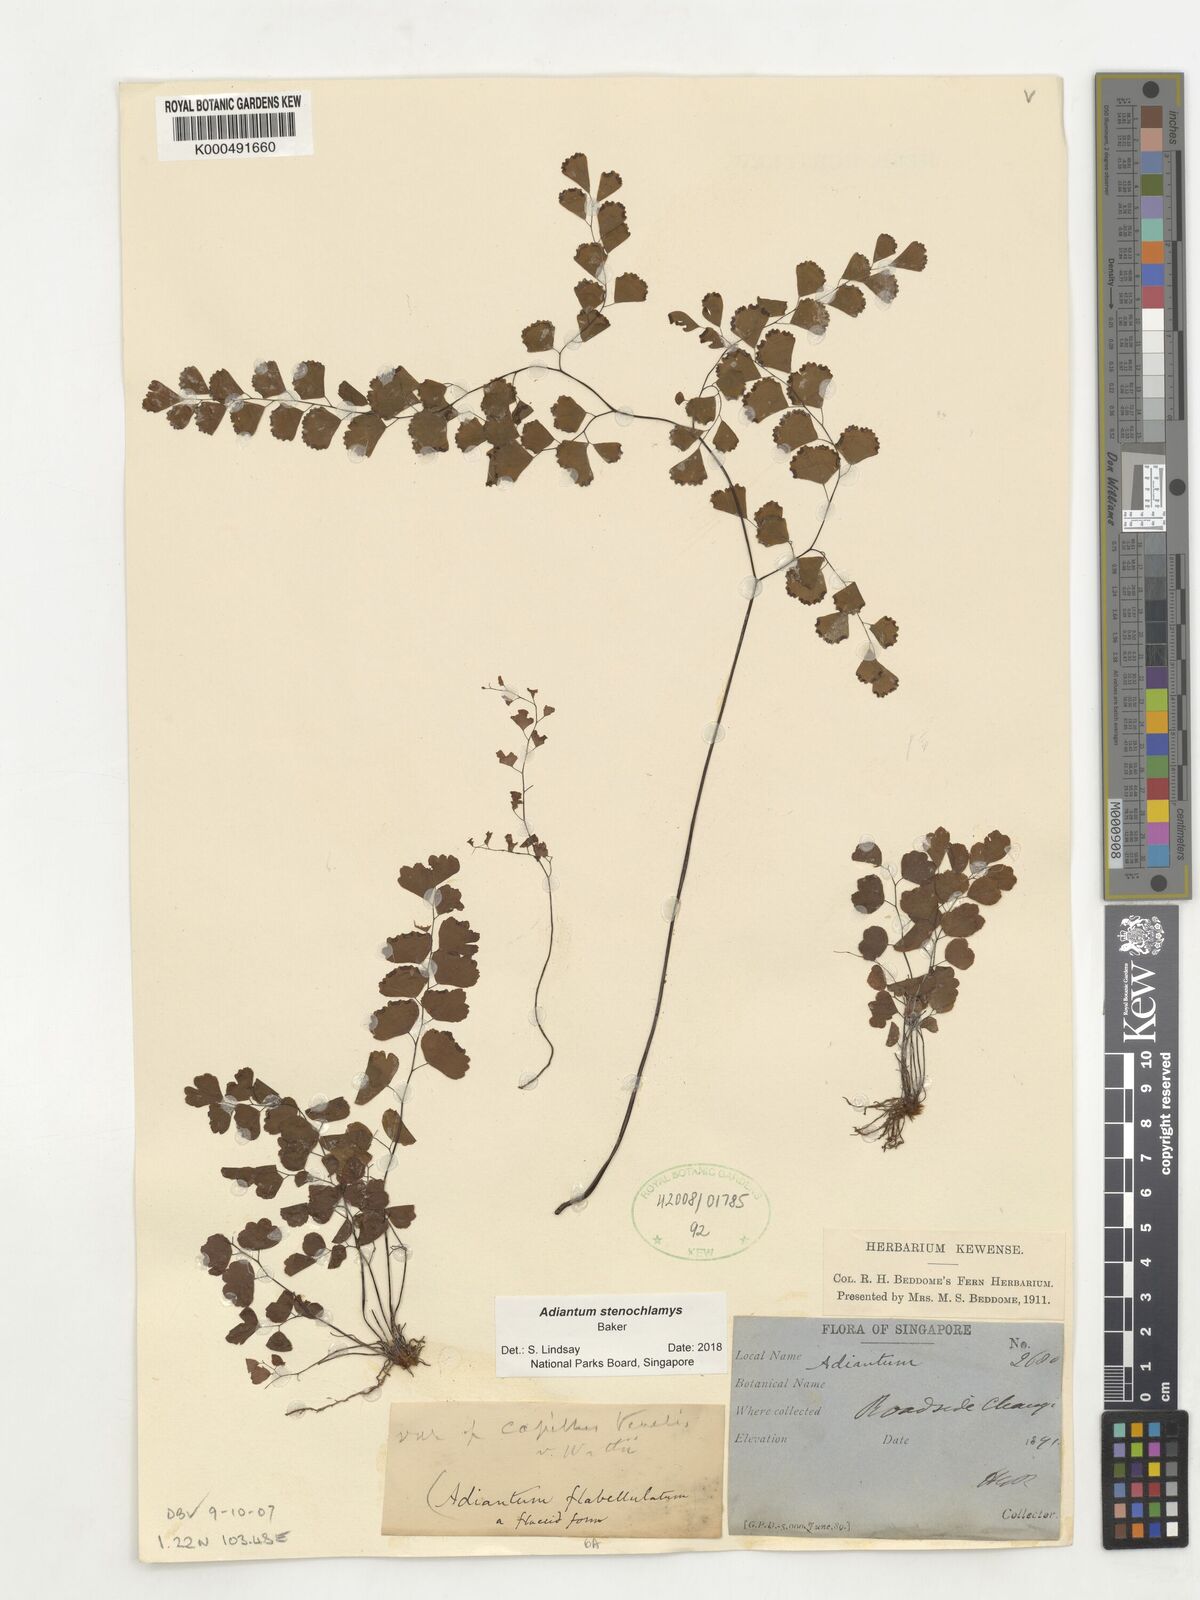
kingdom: Plantae
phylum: Tracheophyta
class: Polypodiopsida
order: Polypodiales
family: Pteridaceae
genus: Adiantum
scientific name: Adiantum stenochlamys
